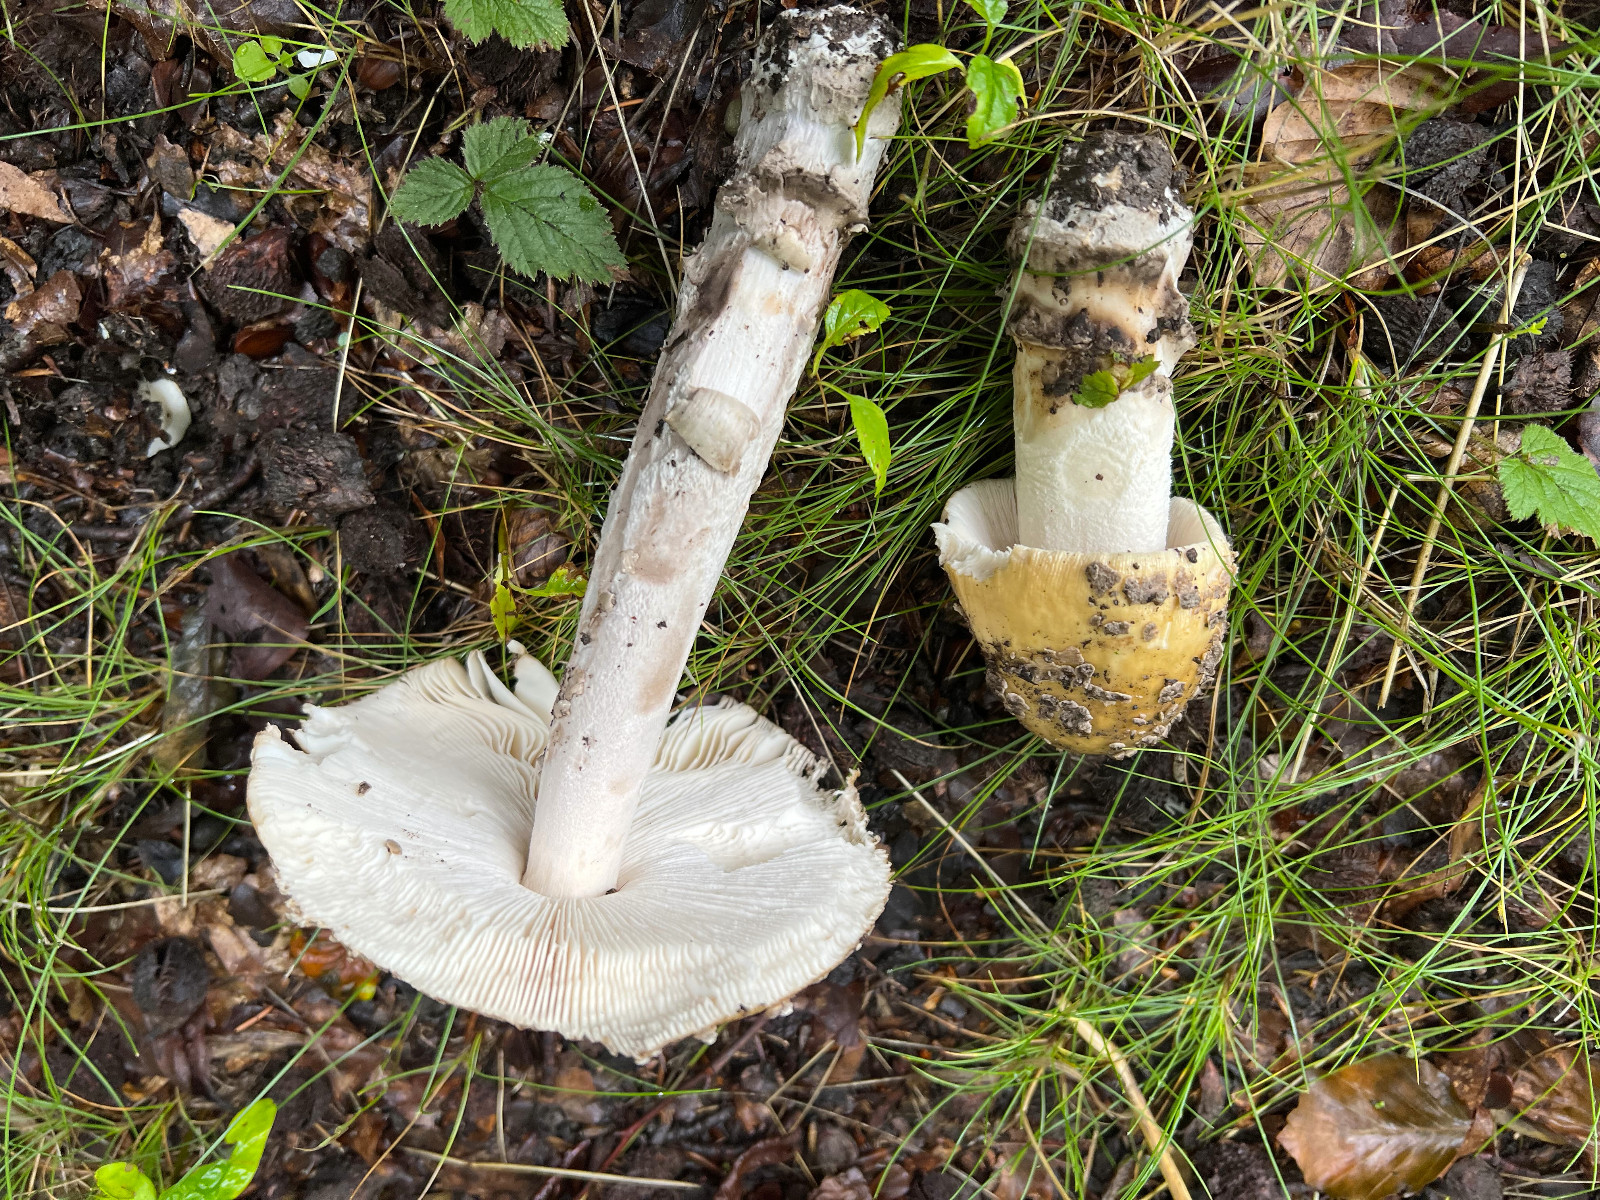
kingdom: Fungi
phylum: Basidiomycota
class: Agaricomycetes
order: Agaricales
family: Amanitaceae
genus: Amanita
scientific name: Amanita ceciliae
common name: stor kam-fluesvamp
